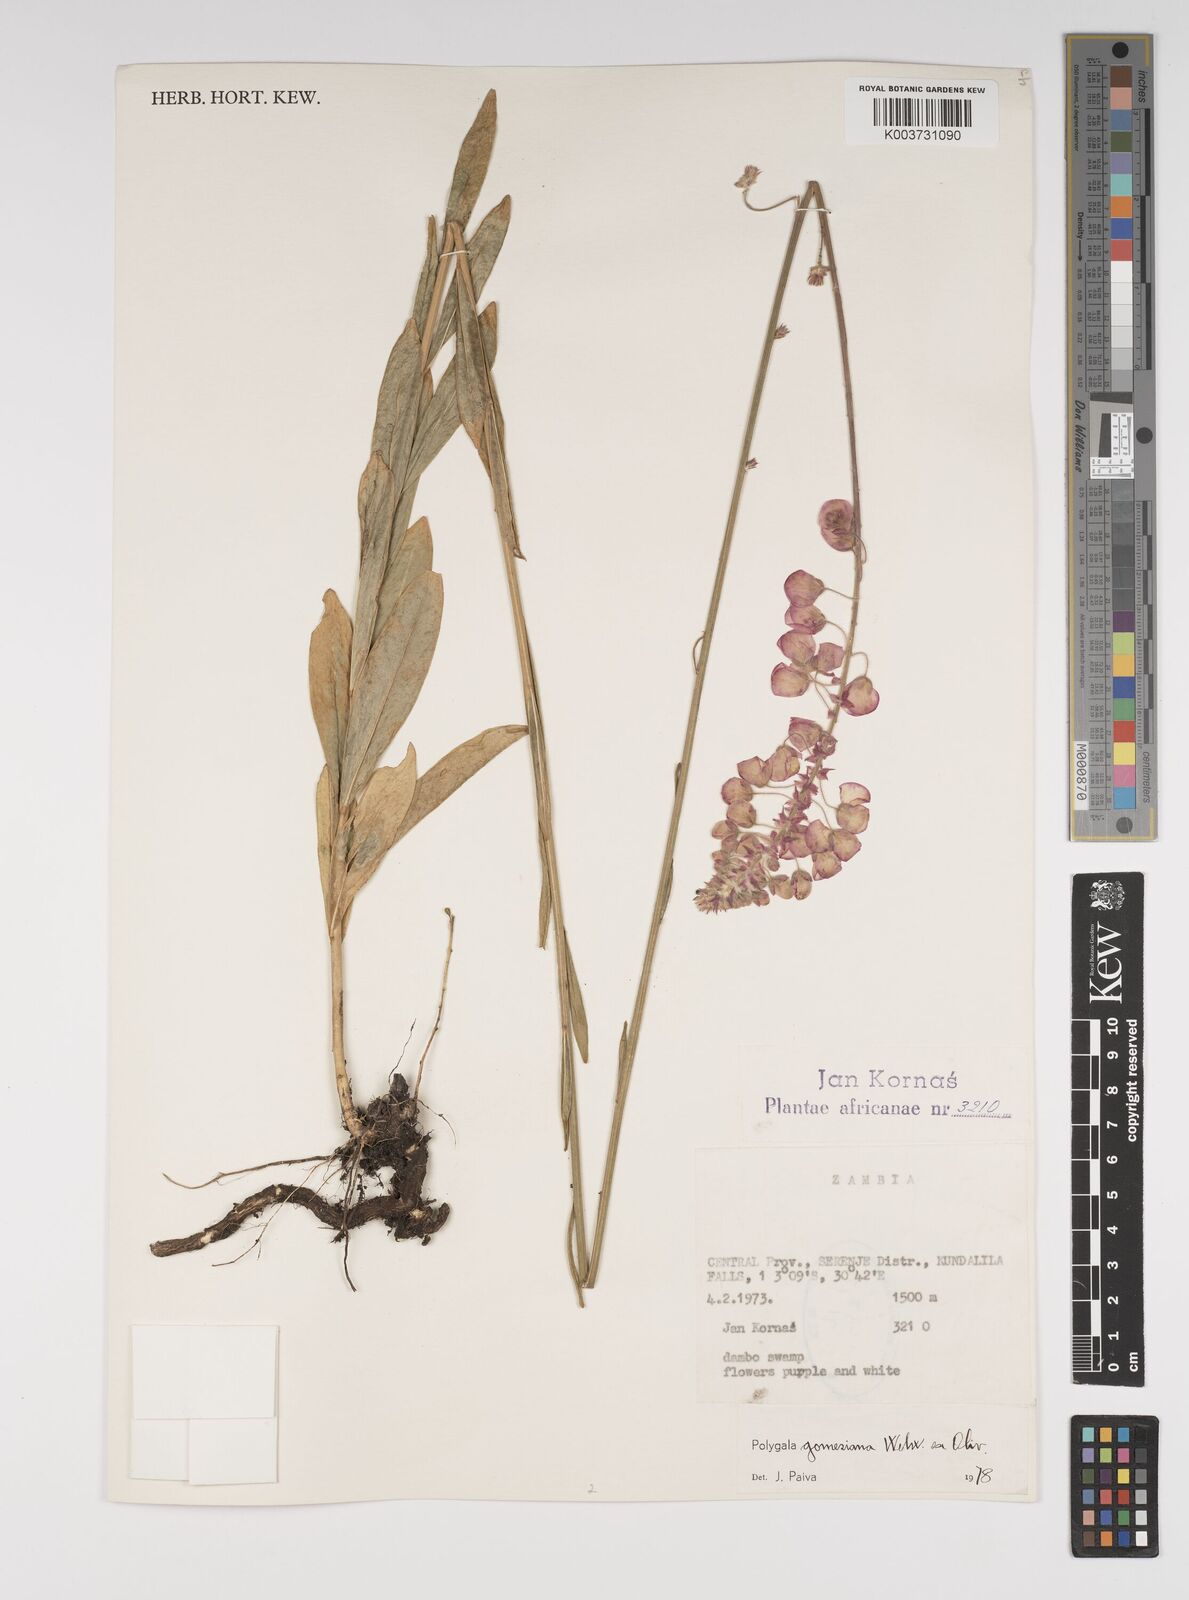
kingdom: Plantae
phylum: Tracheophyta
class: Magnoliopsida
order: Fabales
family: Polygalaceae
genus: Polygala
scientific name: Polygala gomesiana
